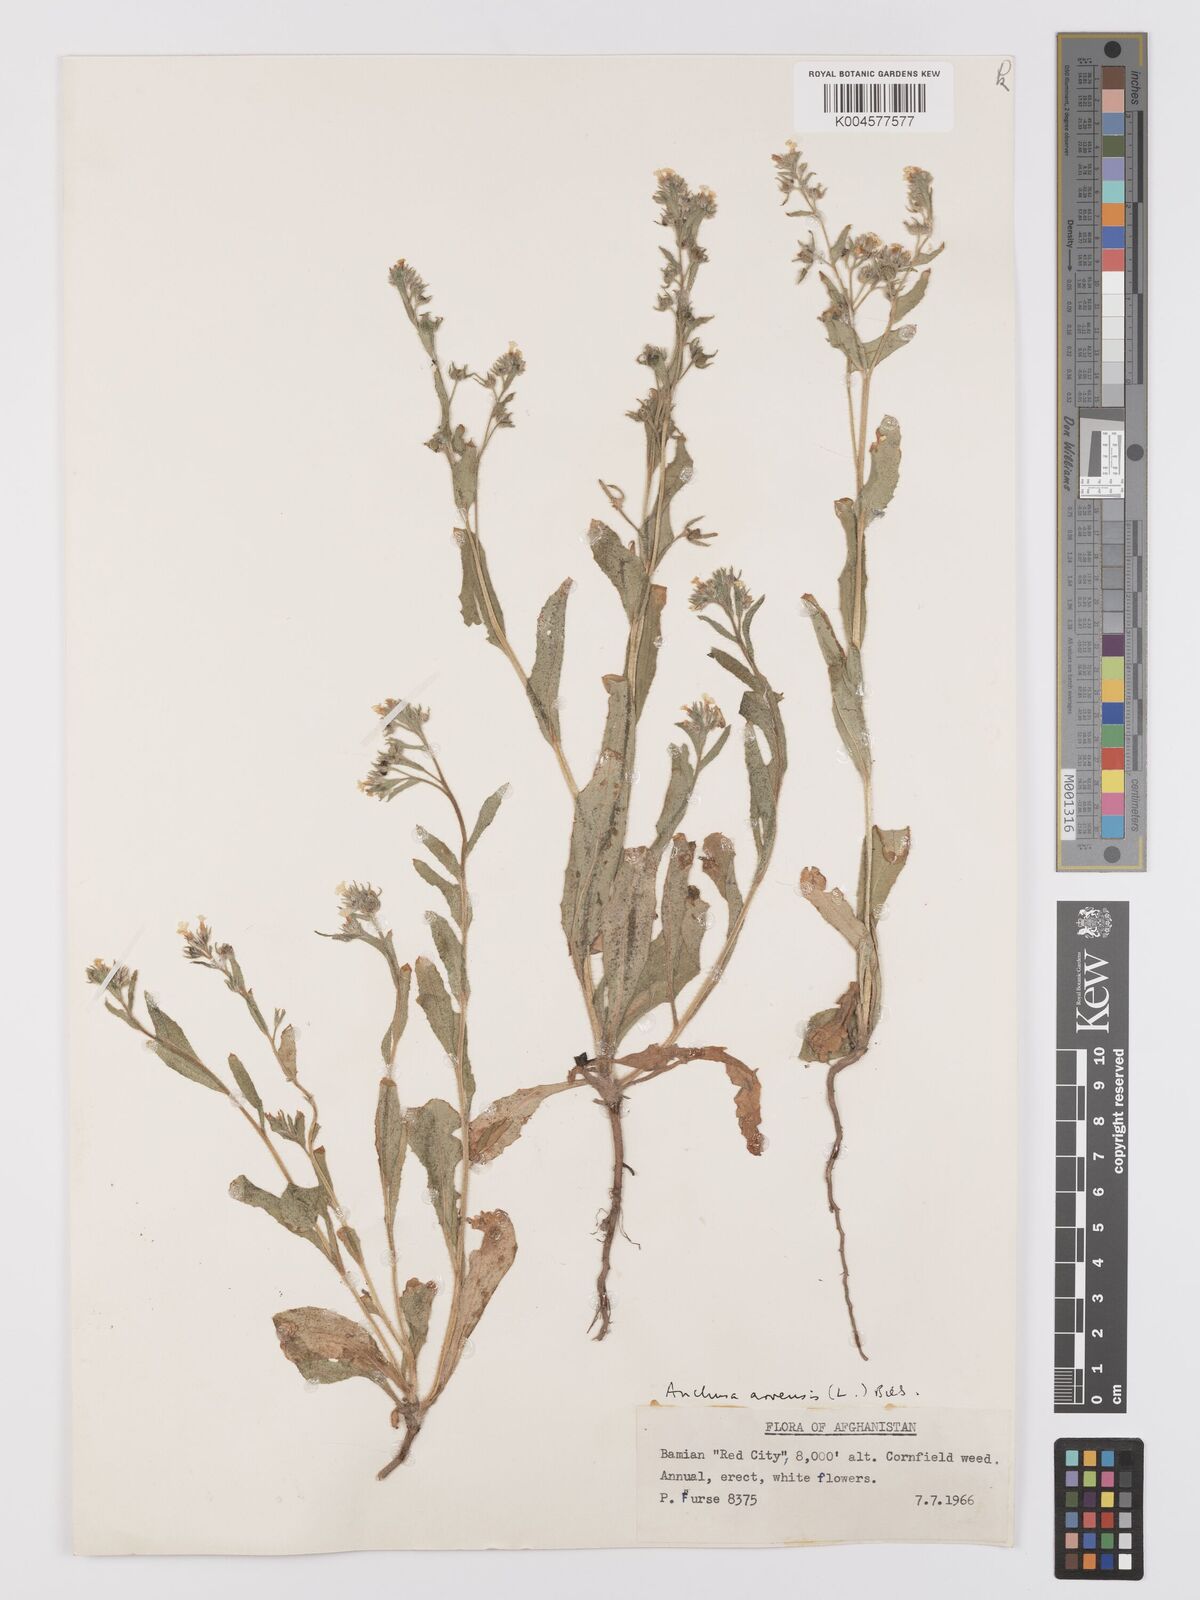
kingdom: Plantae
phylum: Tracheophyta
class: Magnoliopsida
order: Boraginales
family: Boraginaceae
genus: Lycopsis
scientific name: Lycopsis arvensis
